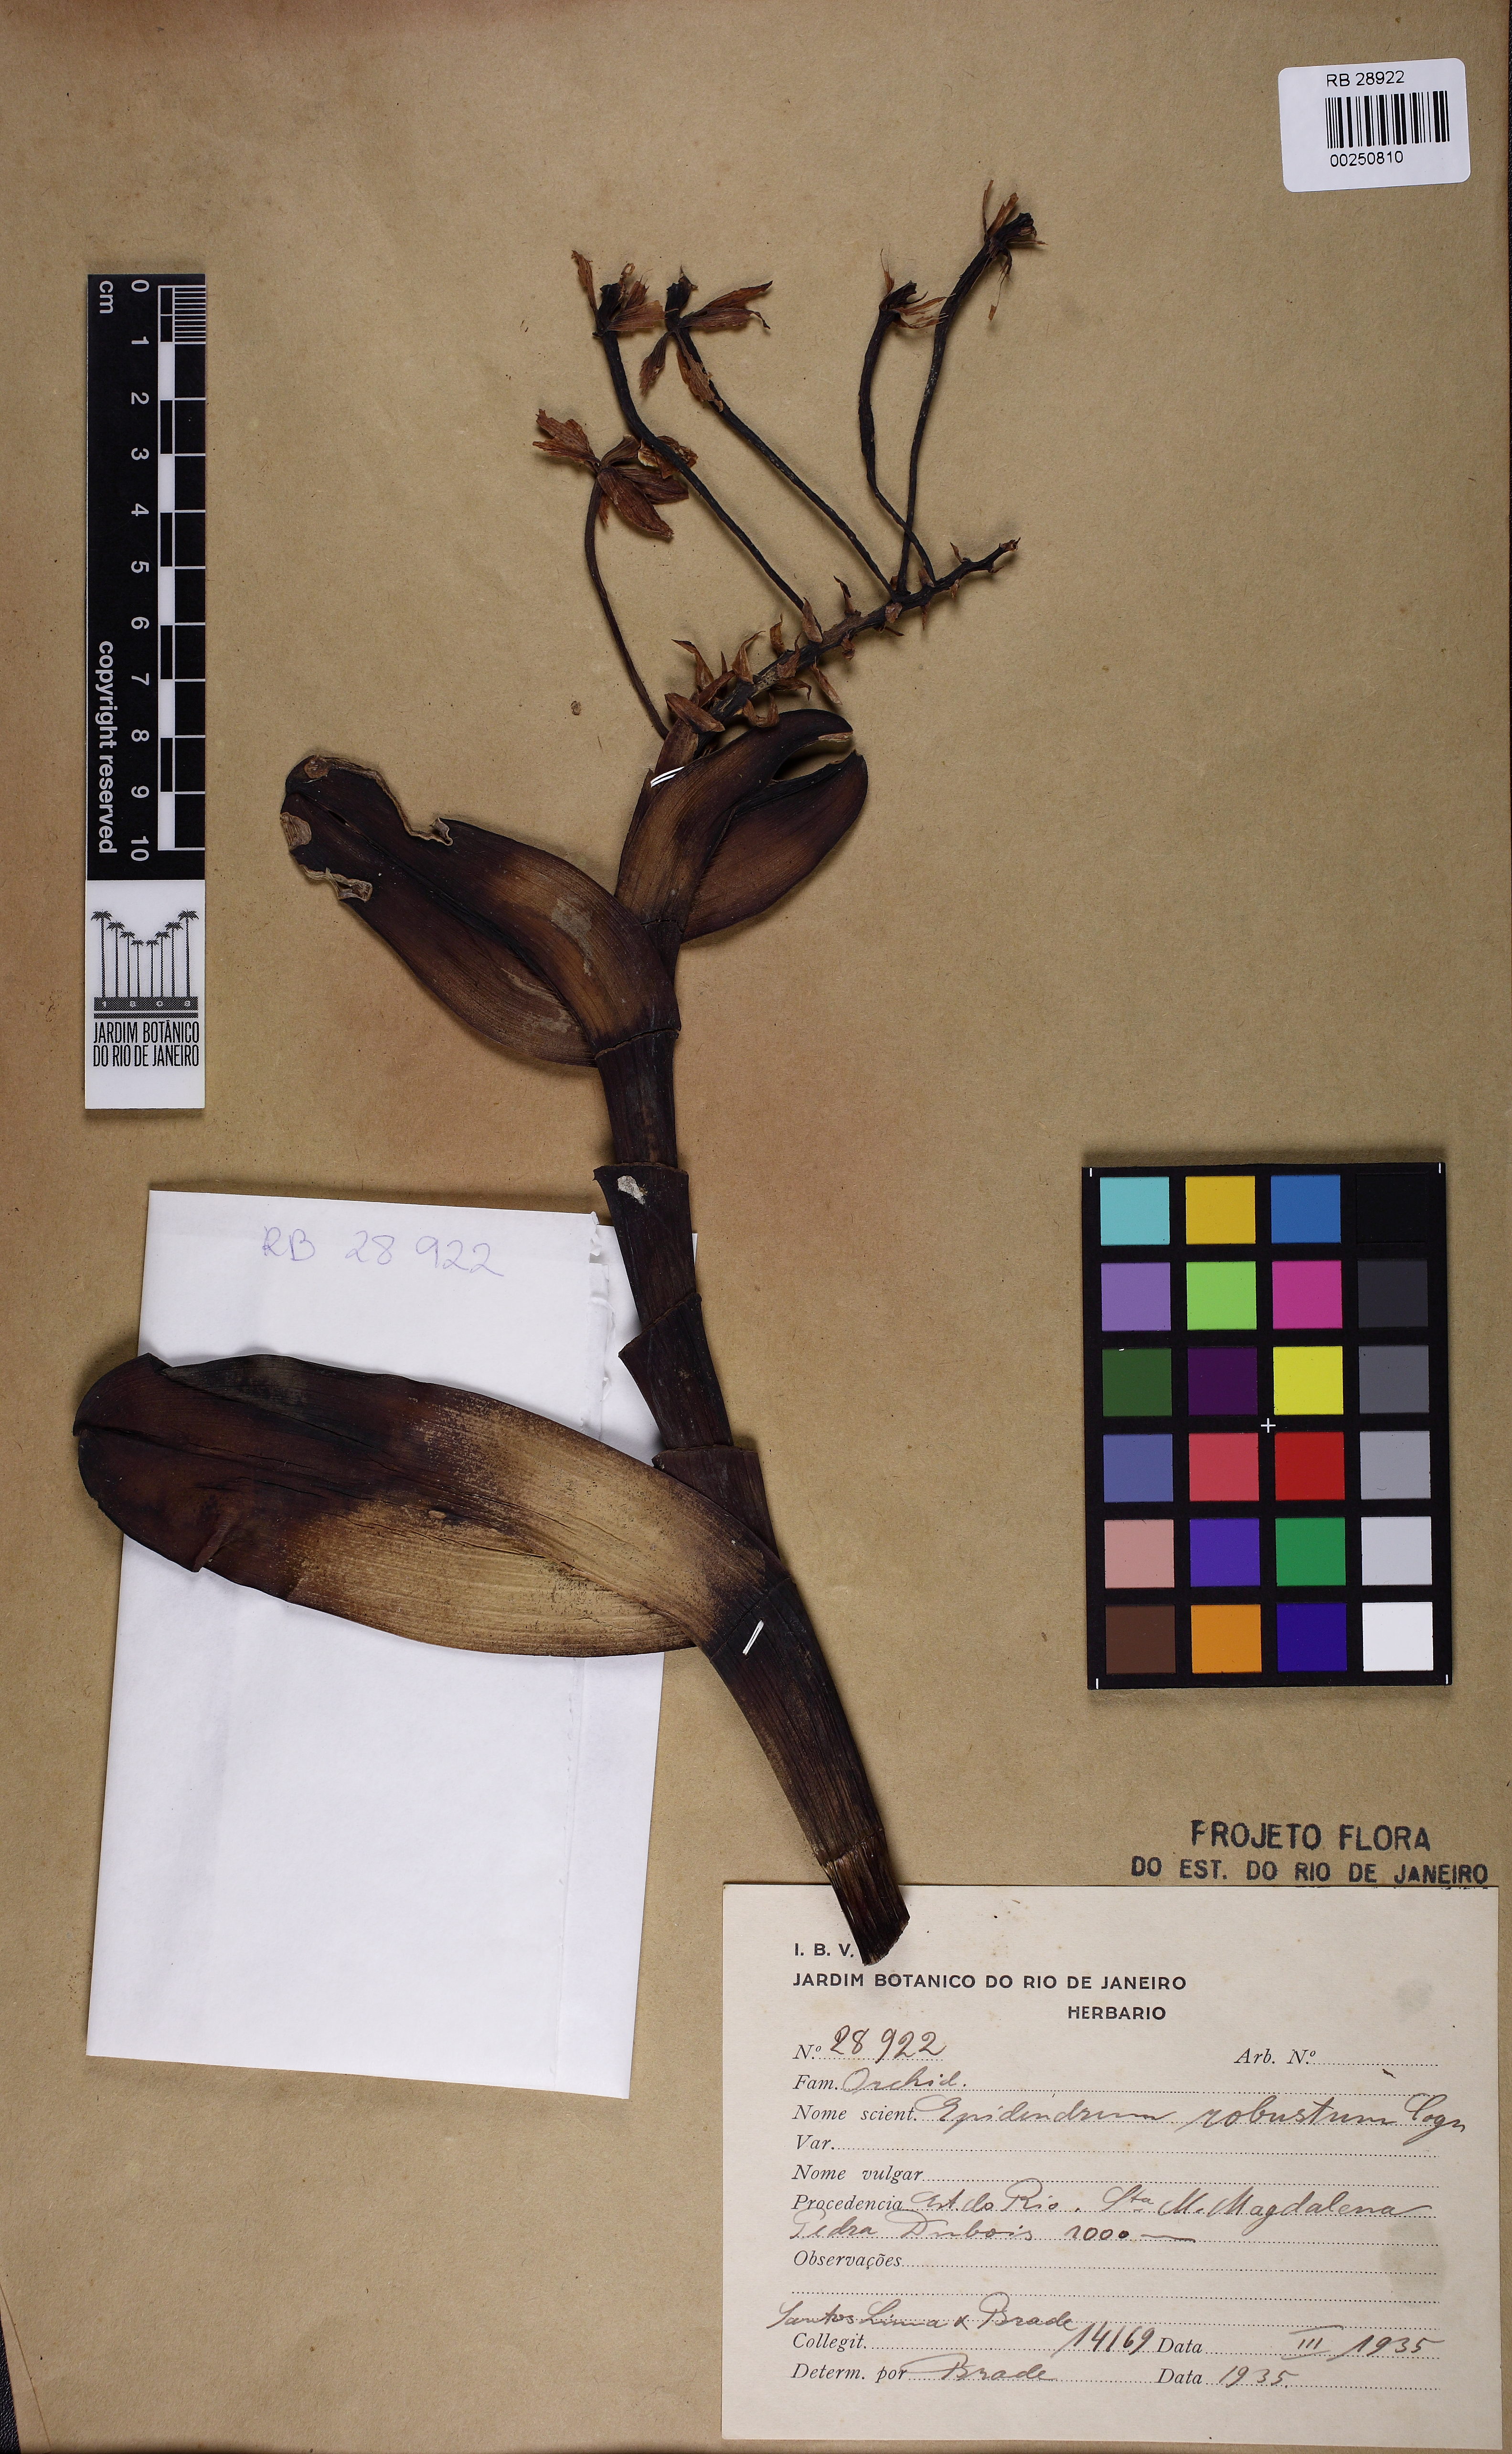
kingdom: Plantae
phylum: Tracheophyta
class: Liliopsida
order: Asparagales
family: Orchidaceae
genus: Epidendrum
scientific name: Epidendrum robustum
